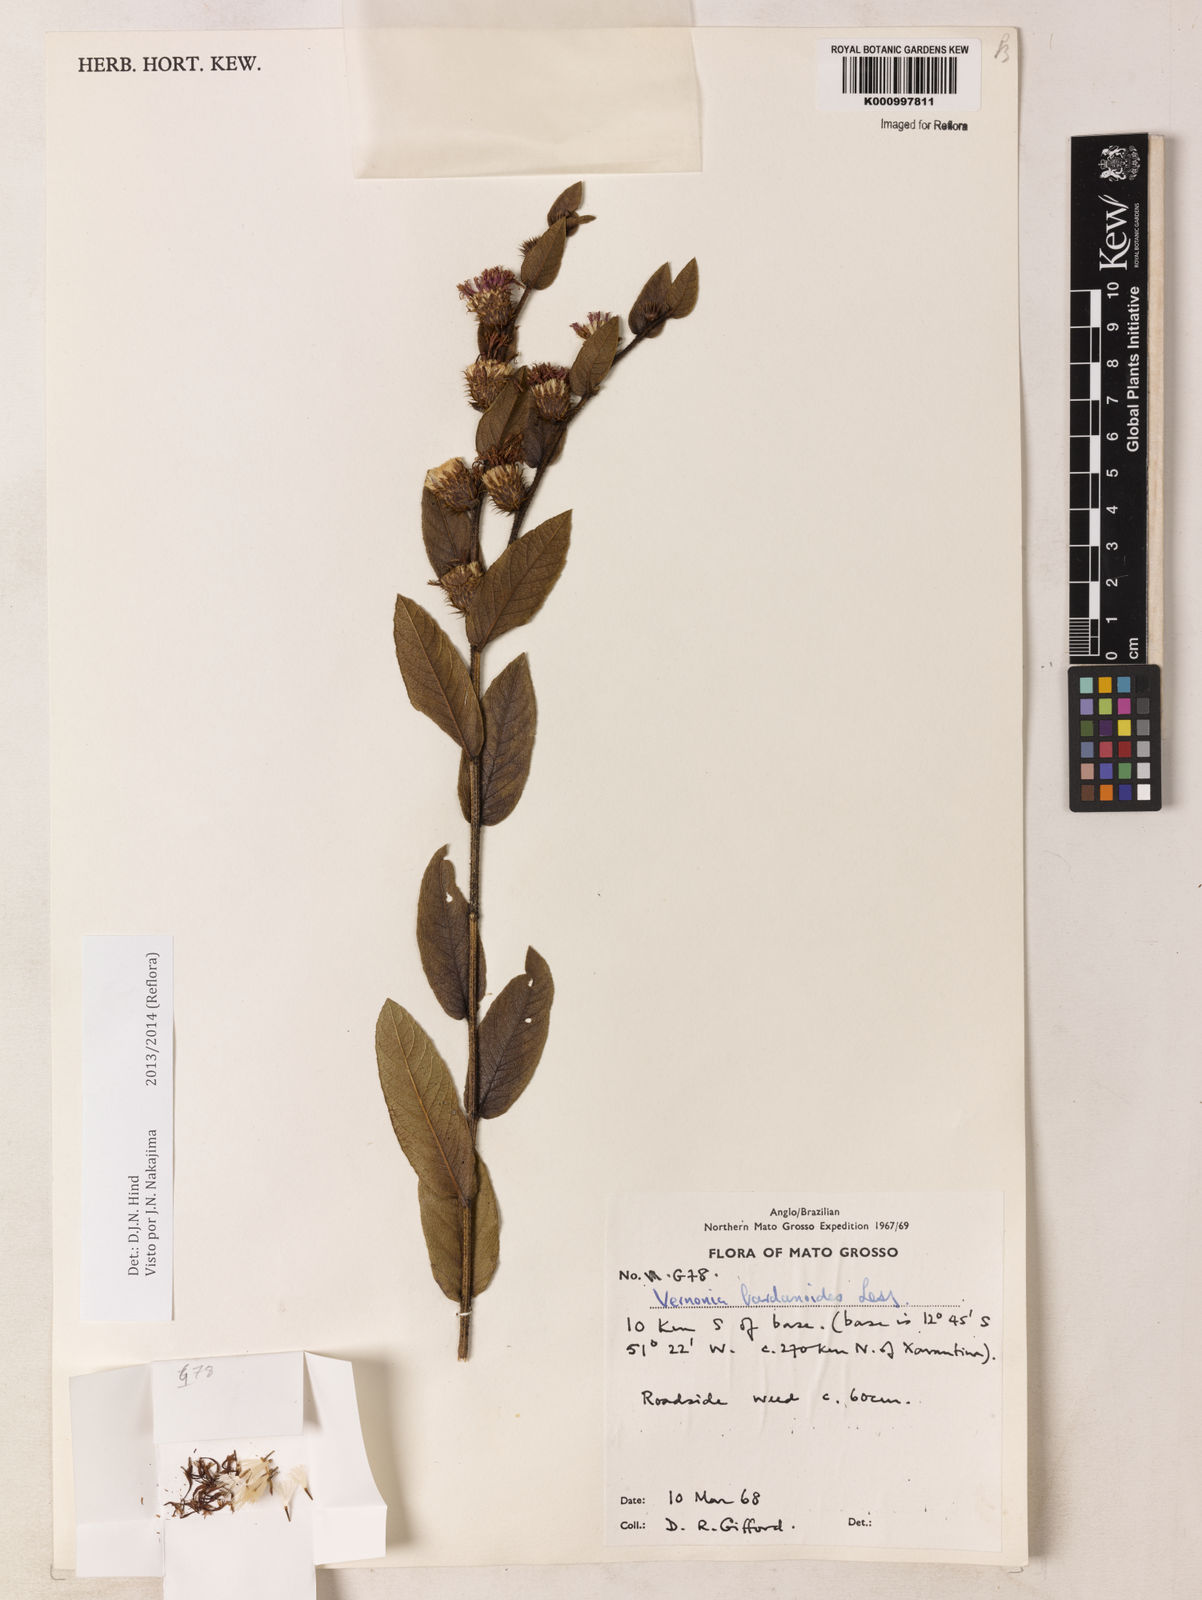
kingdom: Plantae
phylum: Tracheophyta
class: Magnoliopsida
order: Asterales
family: Asteraceae
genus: Lessingianthus
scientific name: Lessingianthus bardanioides
